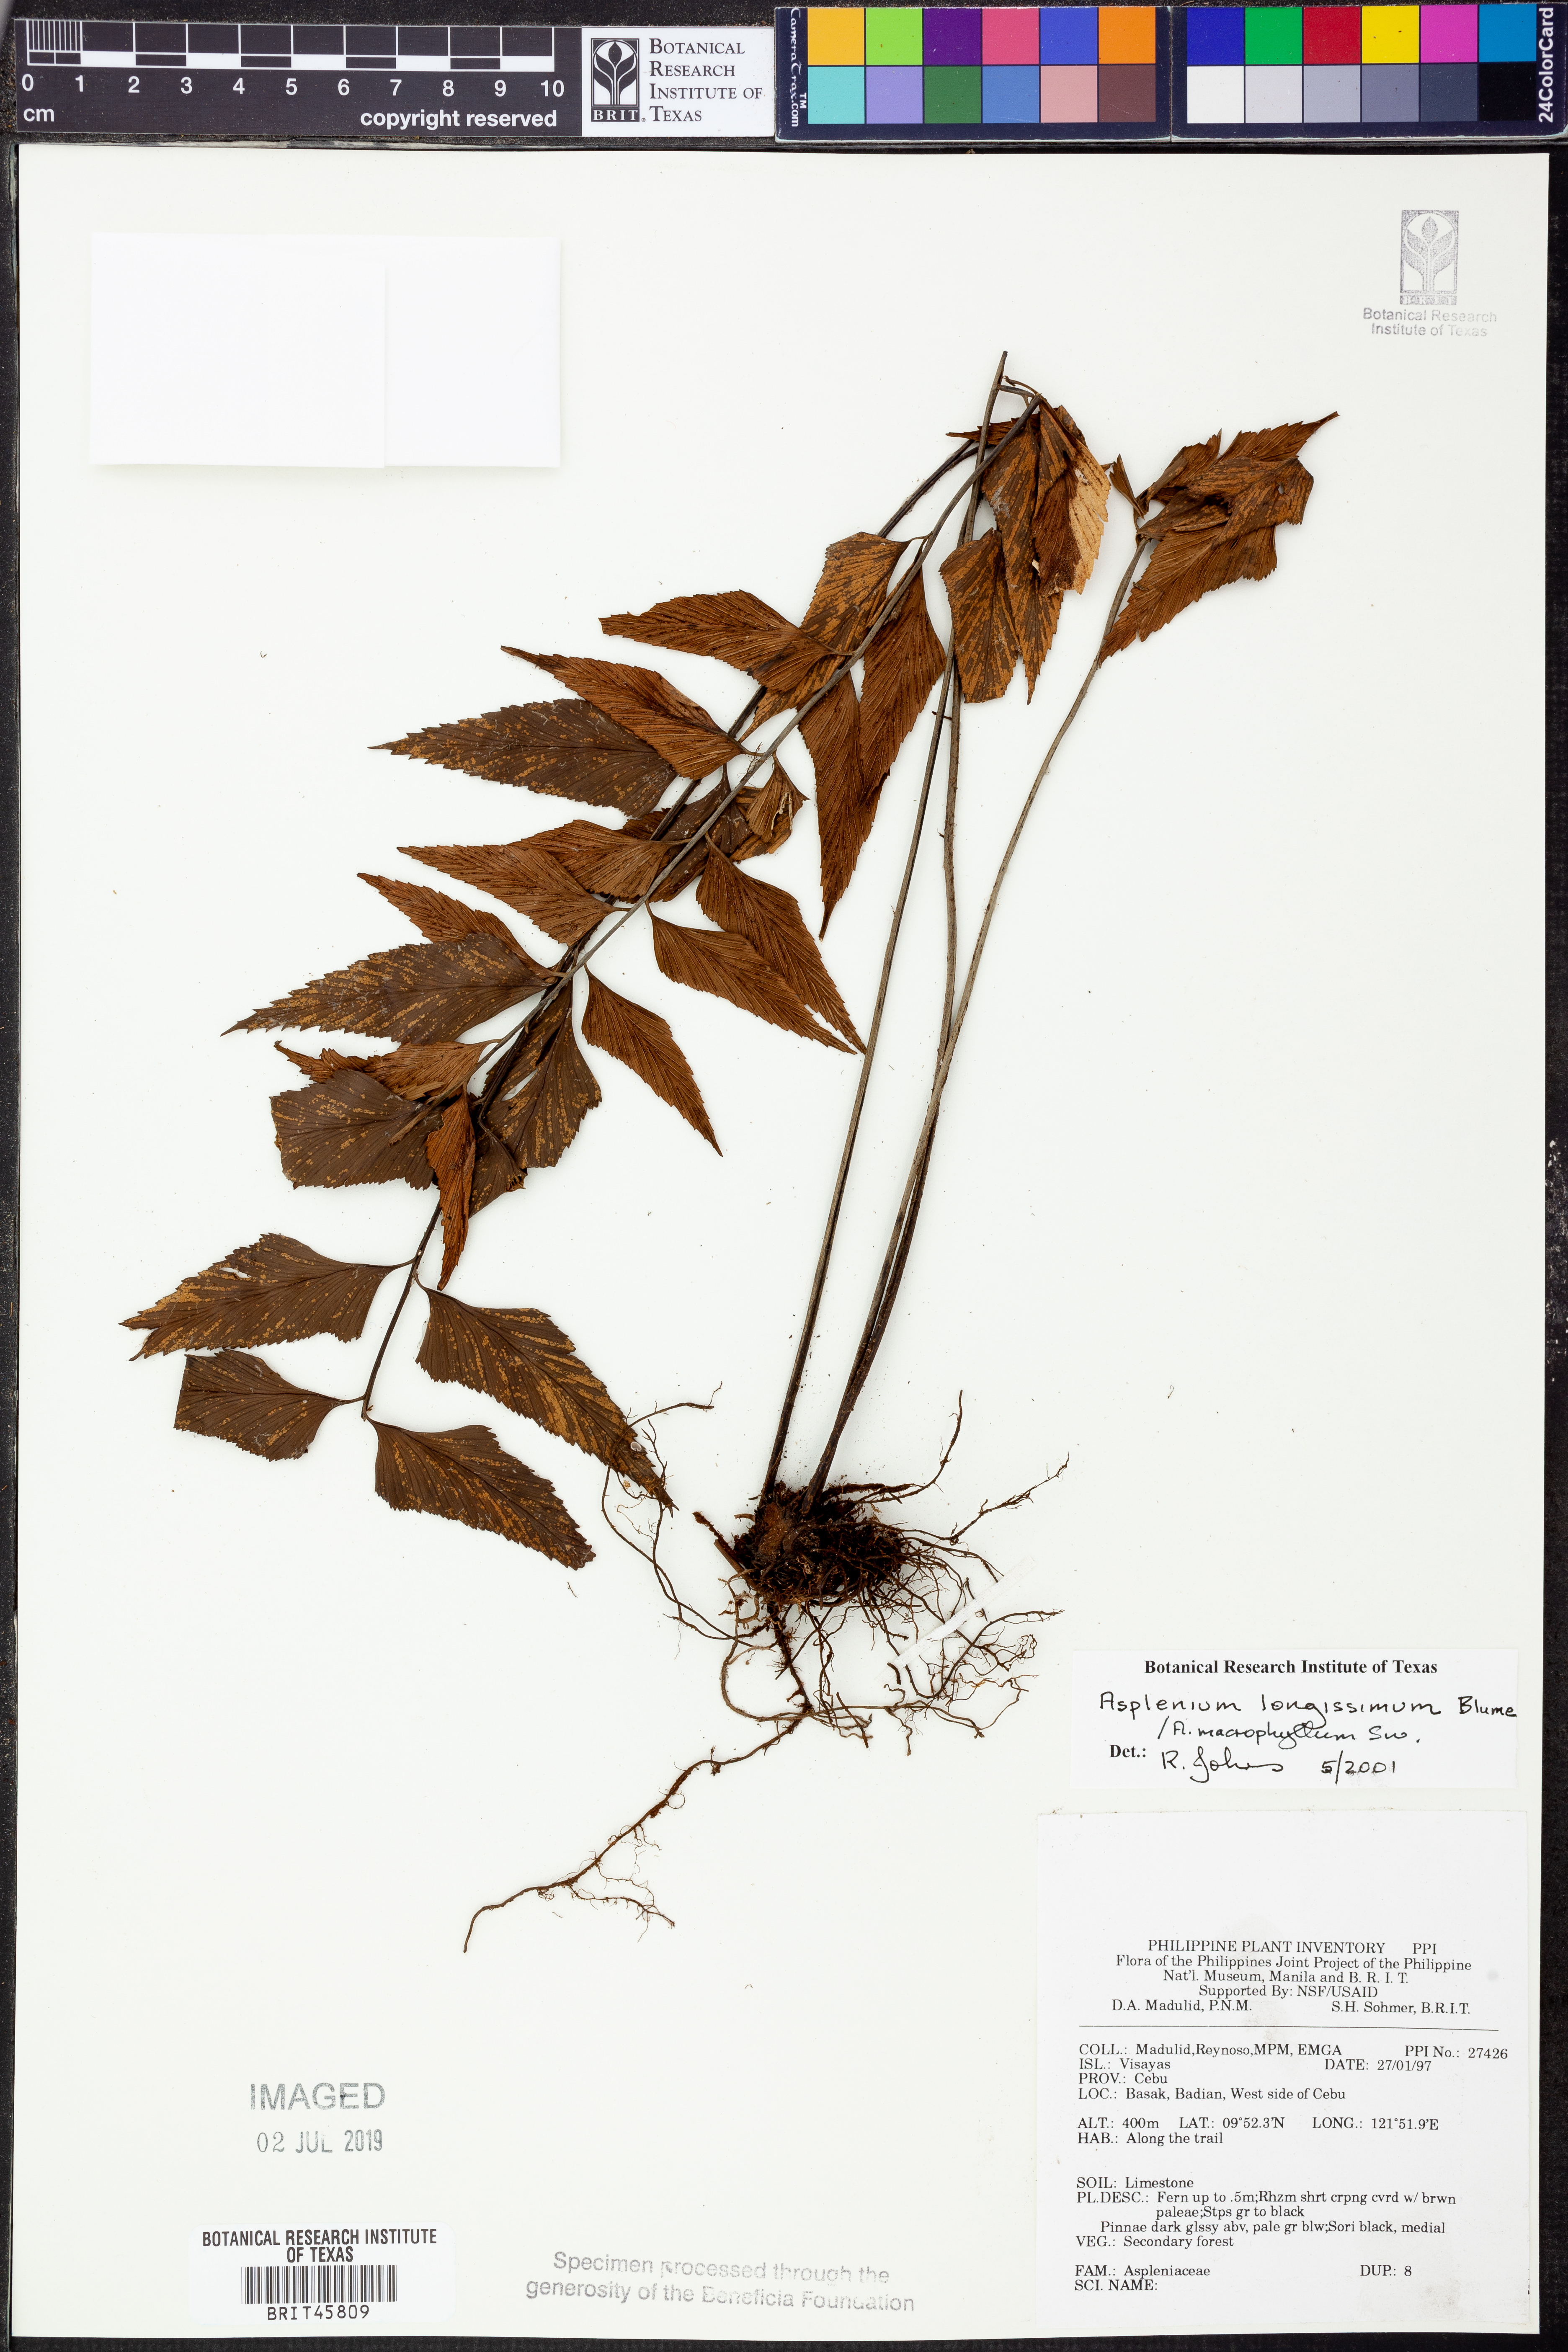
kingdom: Plantae
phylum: Tracheophyta
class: Polypodiopsida
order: Polypodiales
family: Aspleniaceae
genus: Asplenium
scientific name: Asplenium
